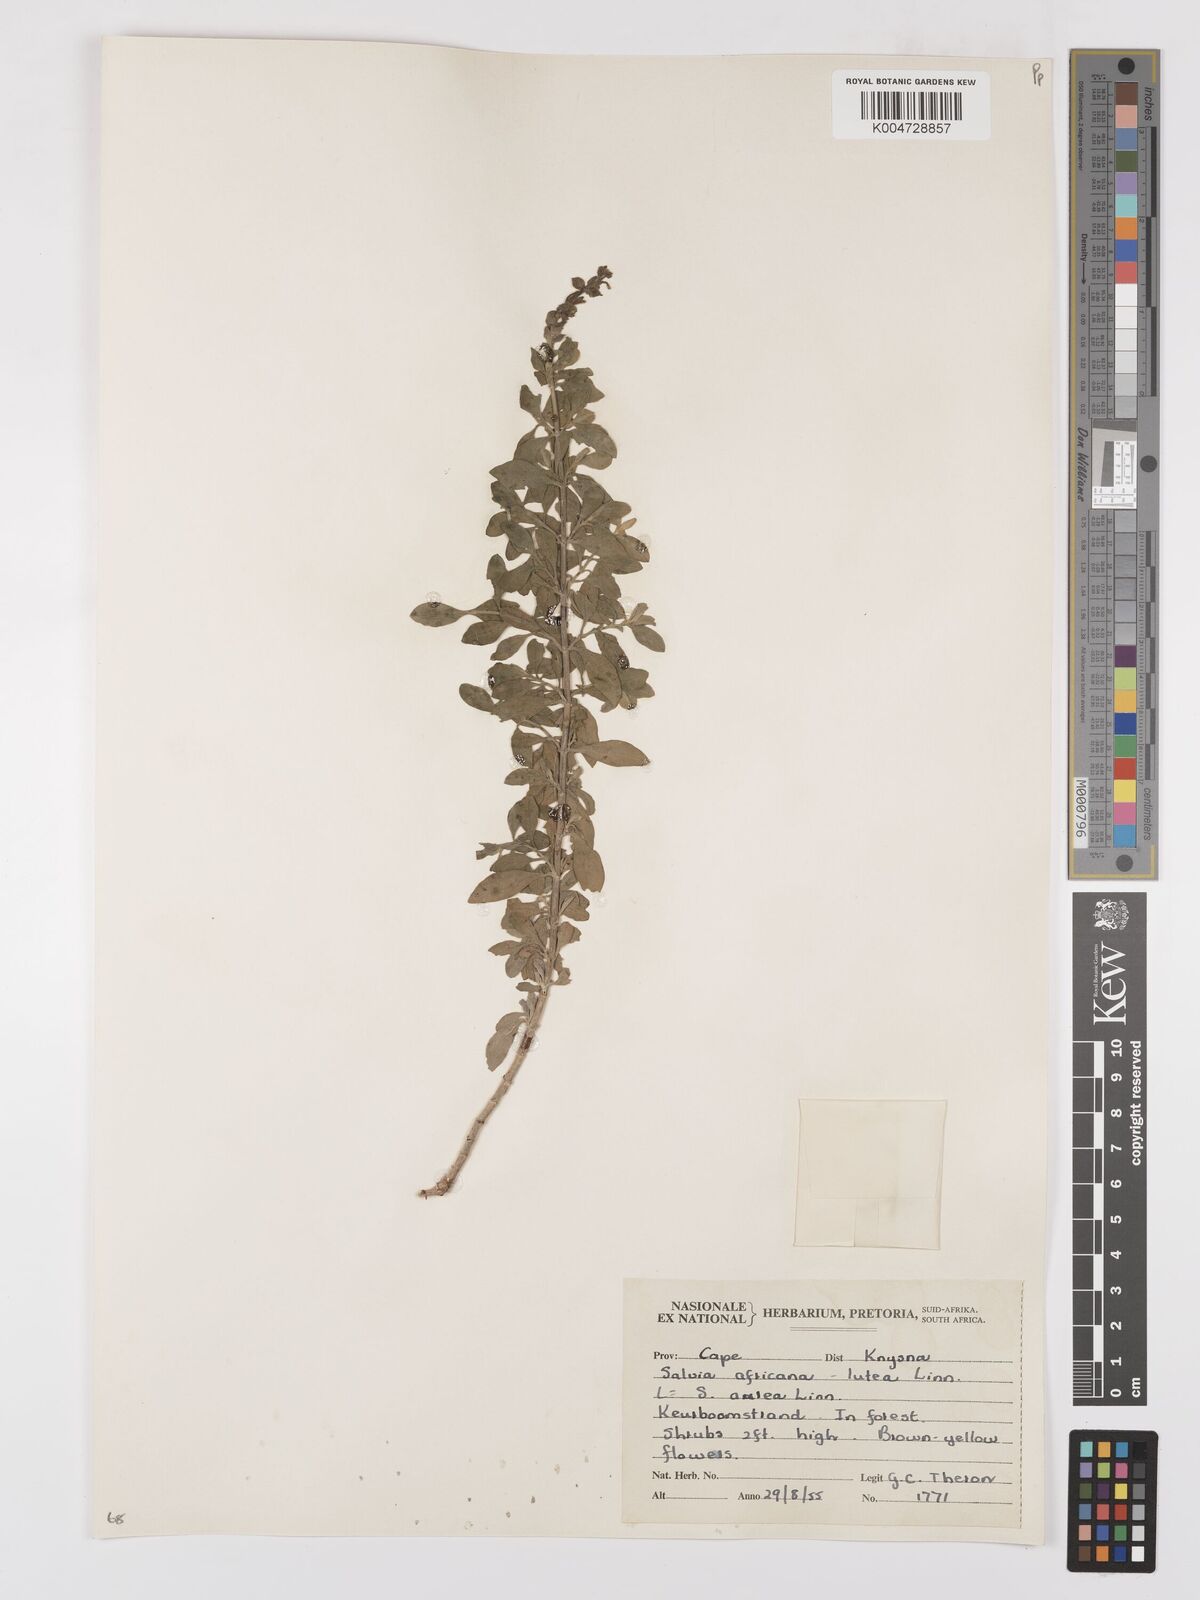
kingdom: Plantae
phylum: Tracheophyta
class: Magnoliopsida
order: Lamiales
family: Lamiaceae
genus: Salvia
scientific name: Salvia aurea
